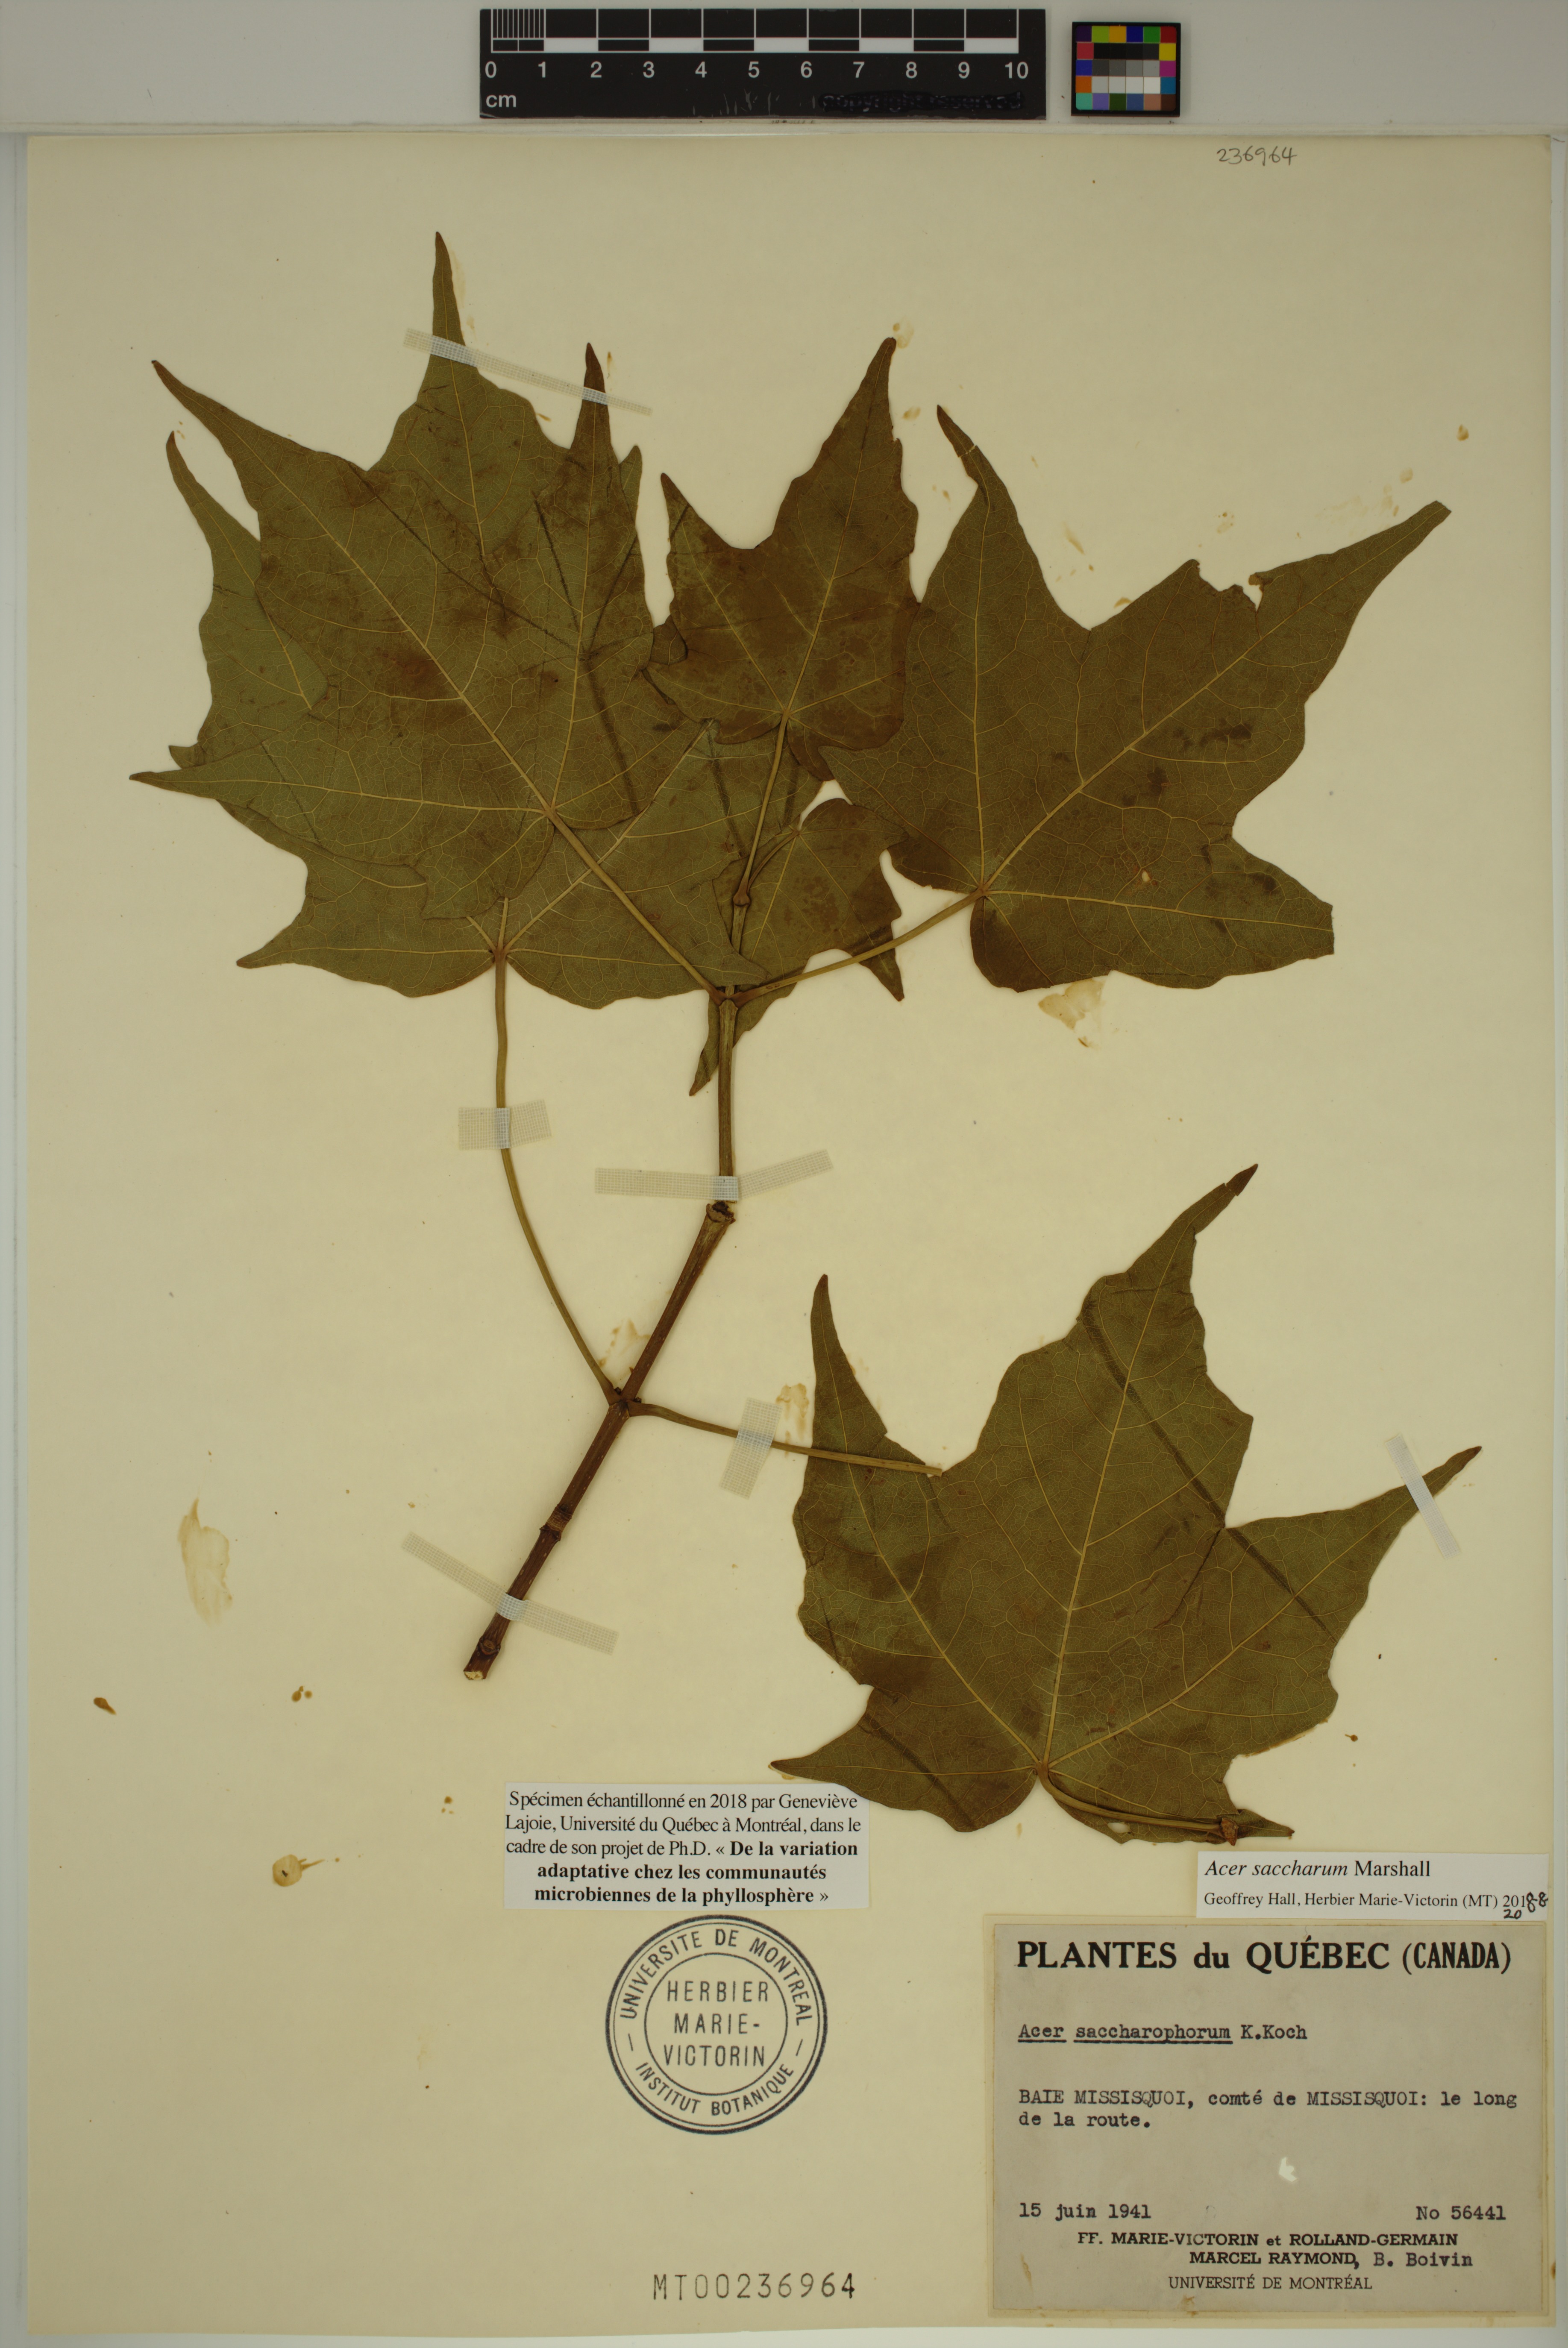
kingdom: Plantae
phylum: Tracheophyta
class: Magnoliopsida
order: Sapindales
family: Sapindaceae
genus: Acer
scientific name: Acer saccharum
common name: Sugar maple
